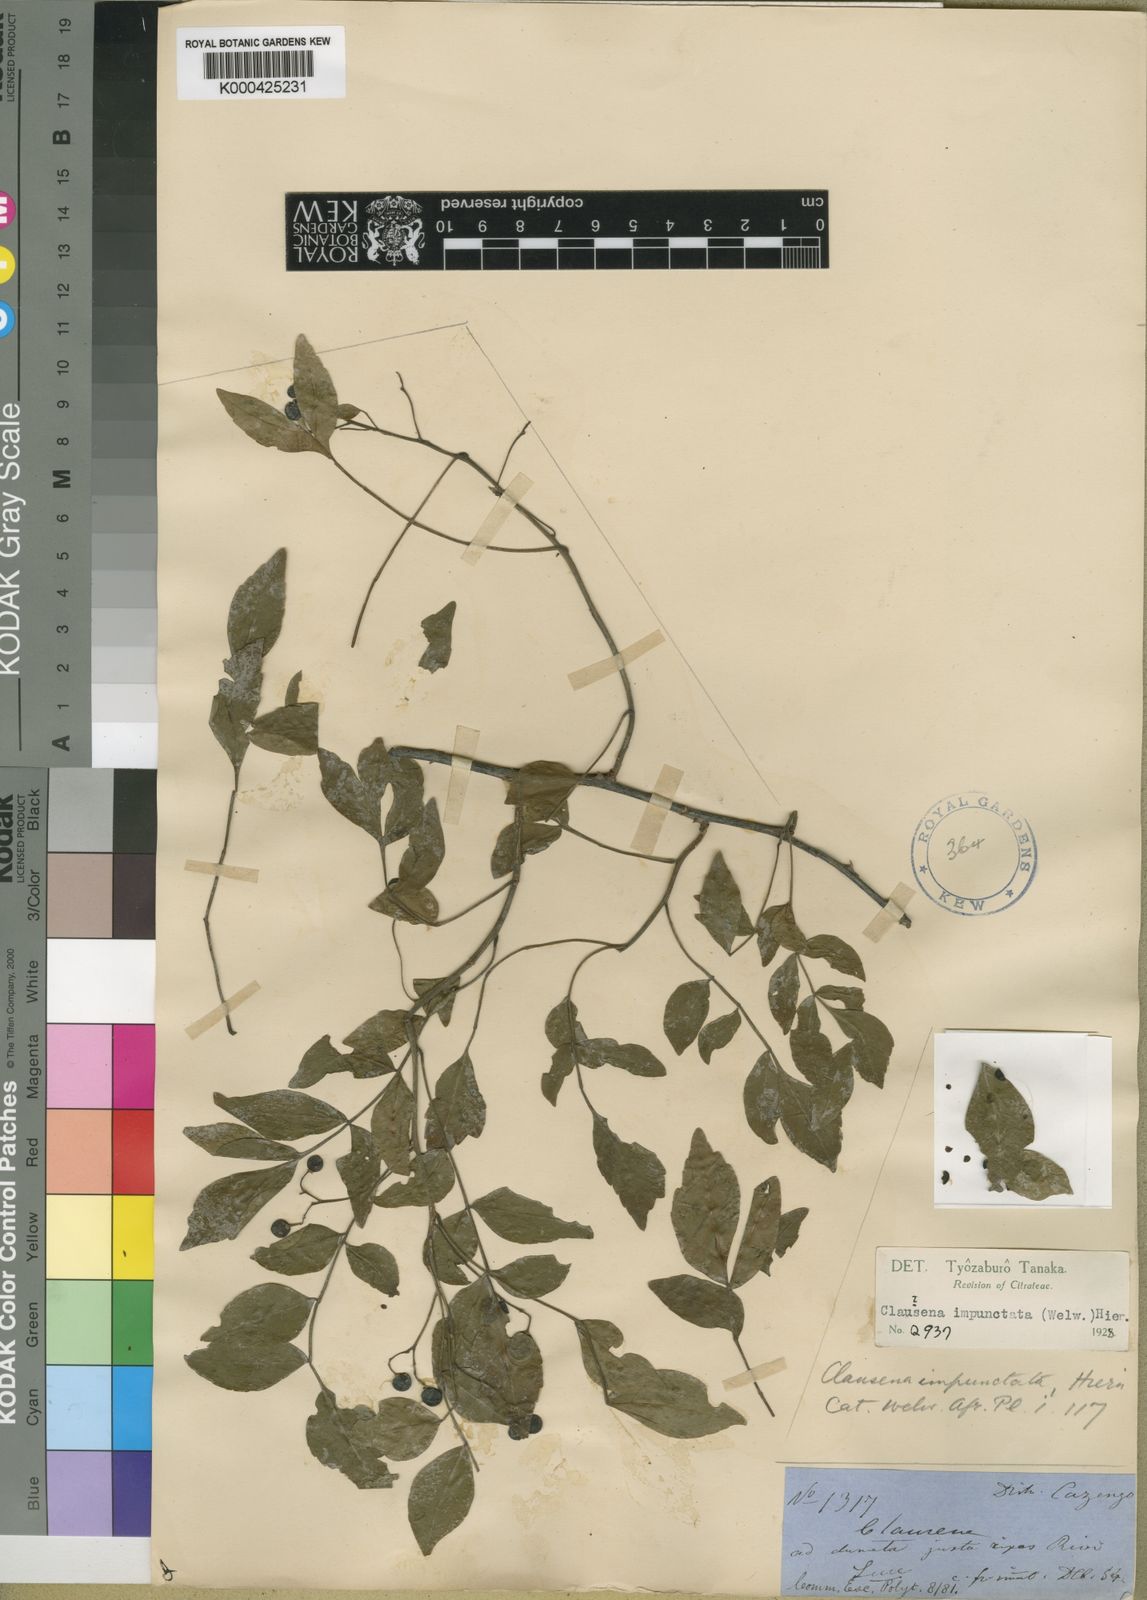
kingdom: Plantae
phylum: Tracheophyta
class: Magnoliopsida
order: Sapindales
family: Rutaceae
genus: Harrisonia
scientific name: Harrisonia abyssinica
